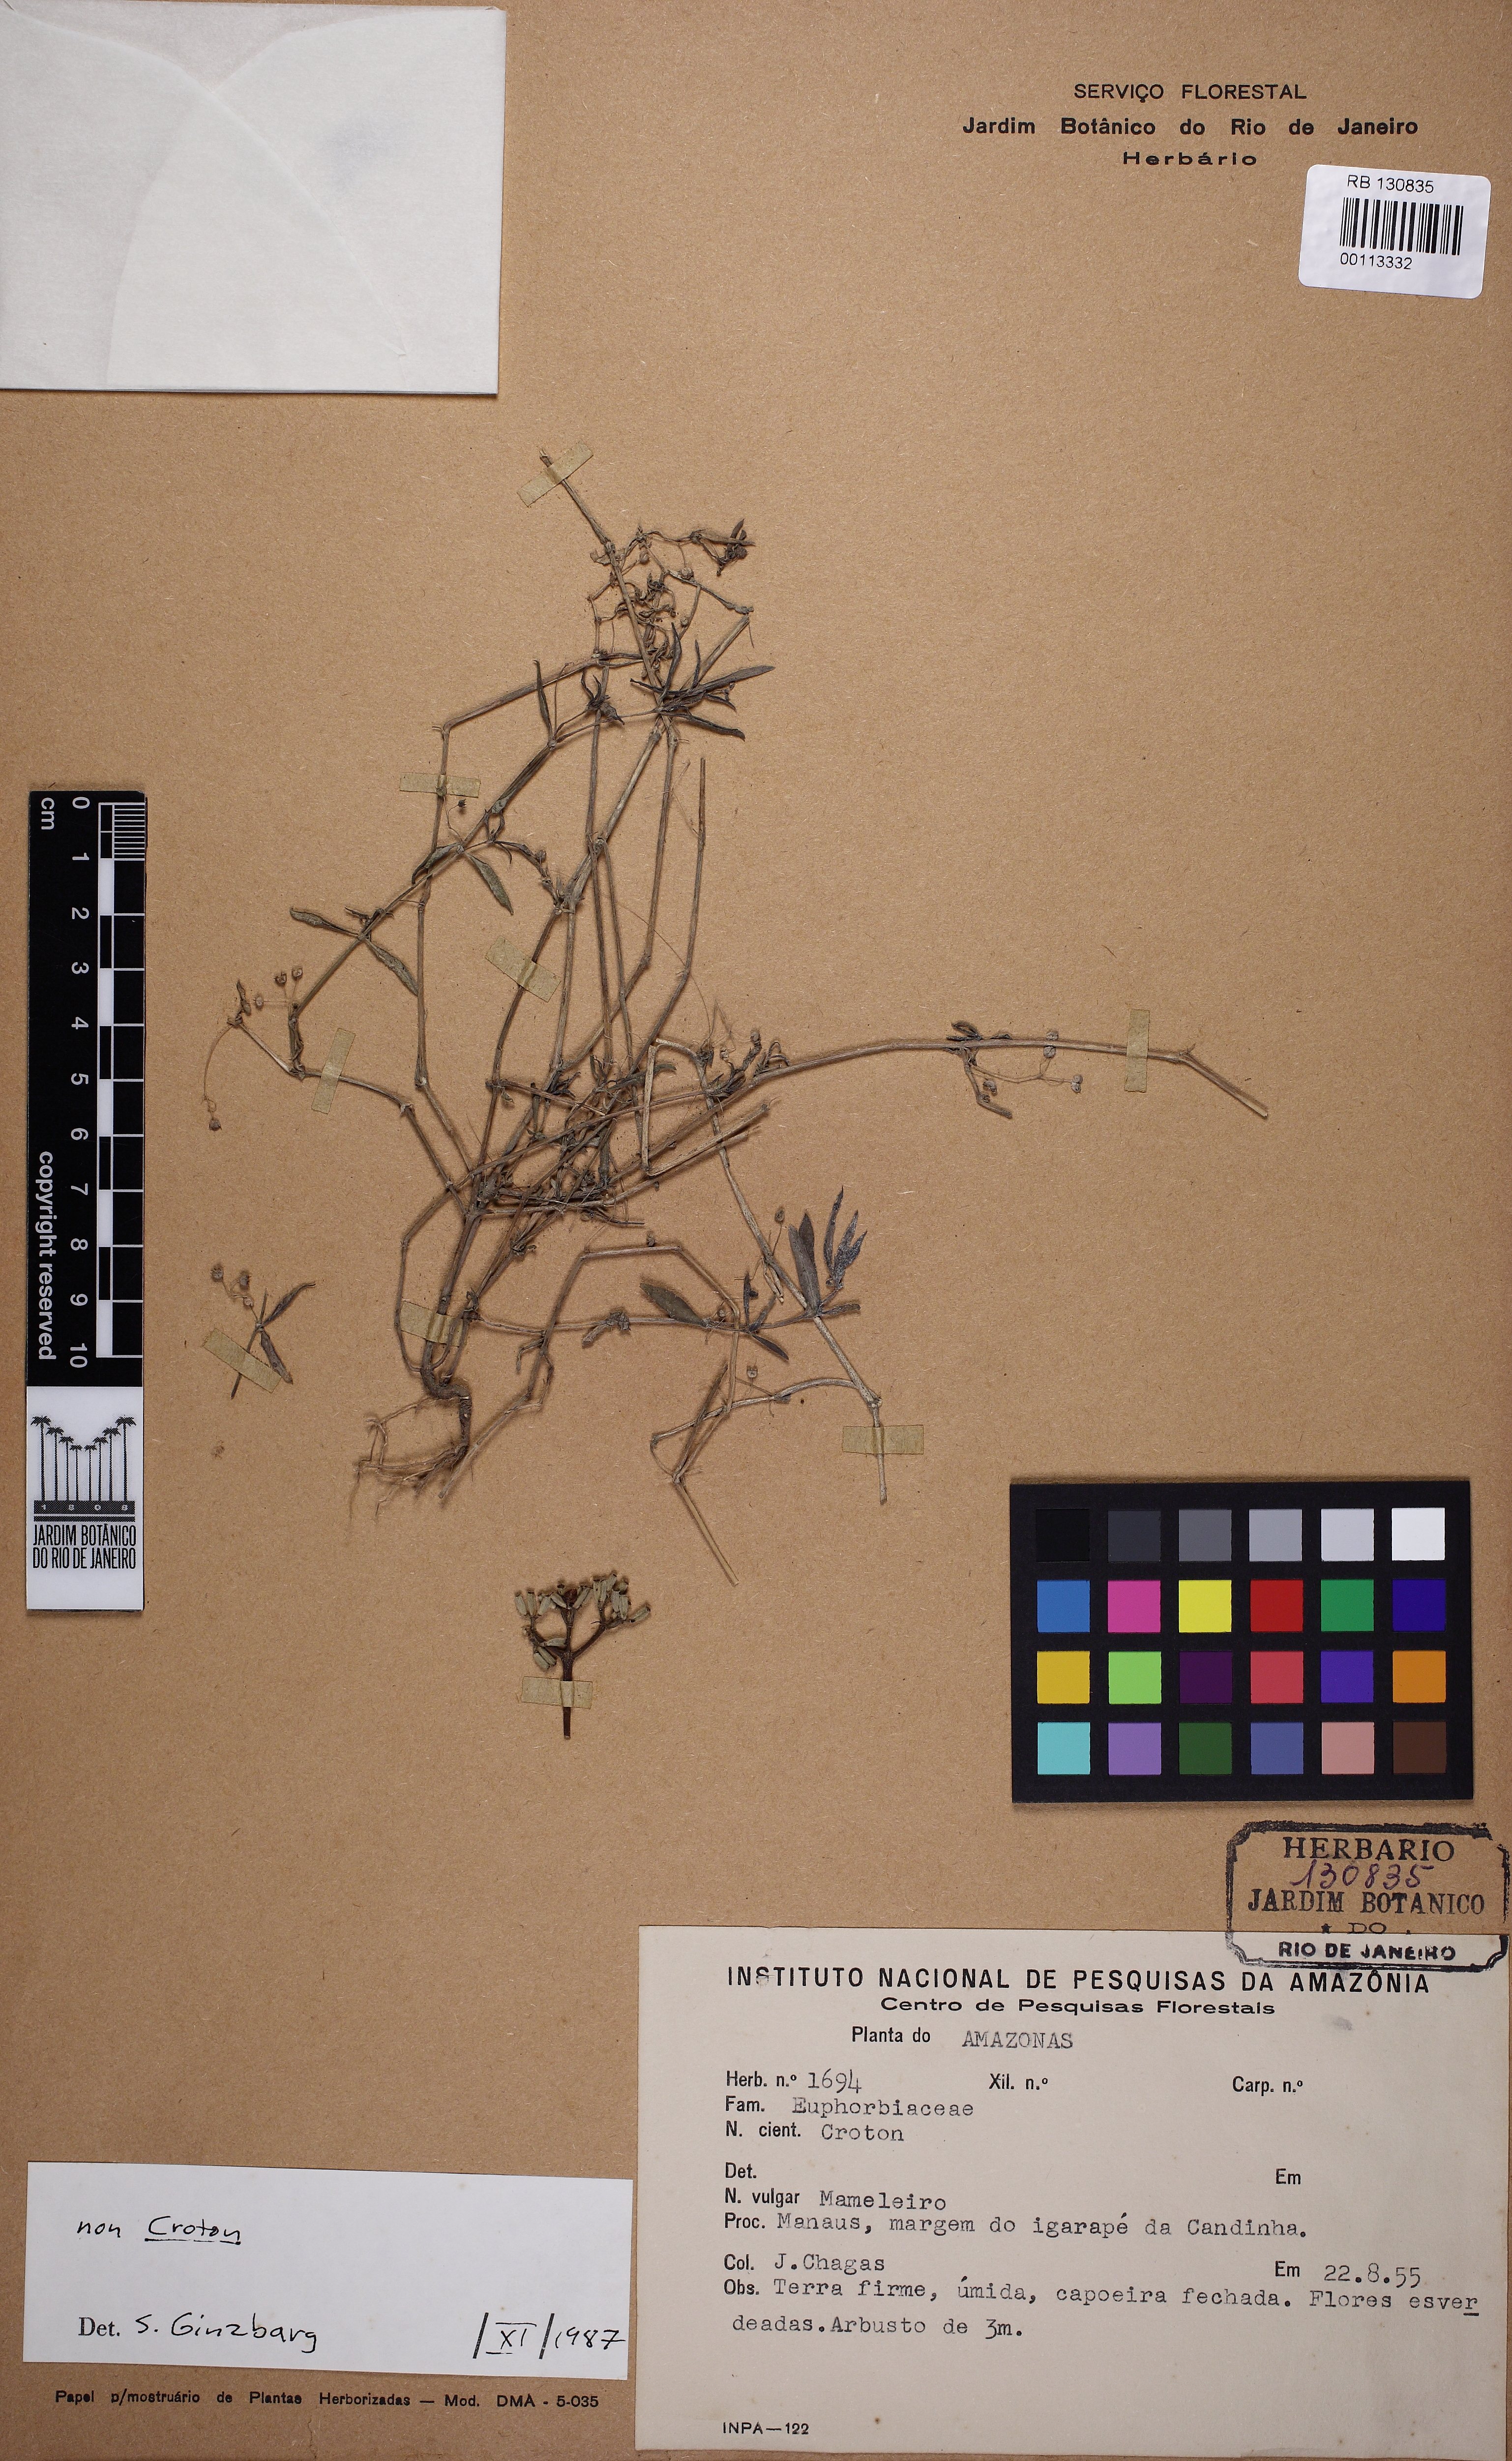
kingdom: Plantae
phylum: Tracheophyta
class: Magnoliopsida
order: Gentianales
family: Rubiaceae
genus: Oldenlandia
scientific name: Oldenlandia corymbosa
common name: Flat-top mille graines
